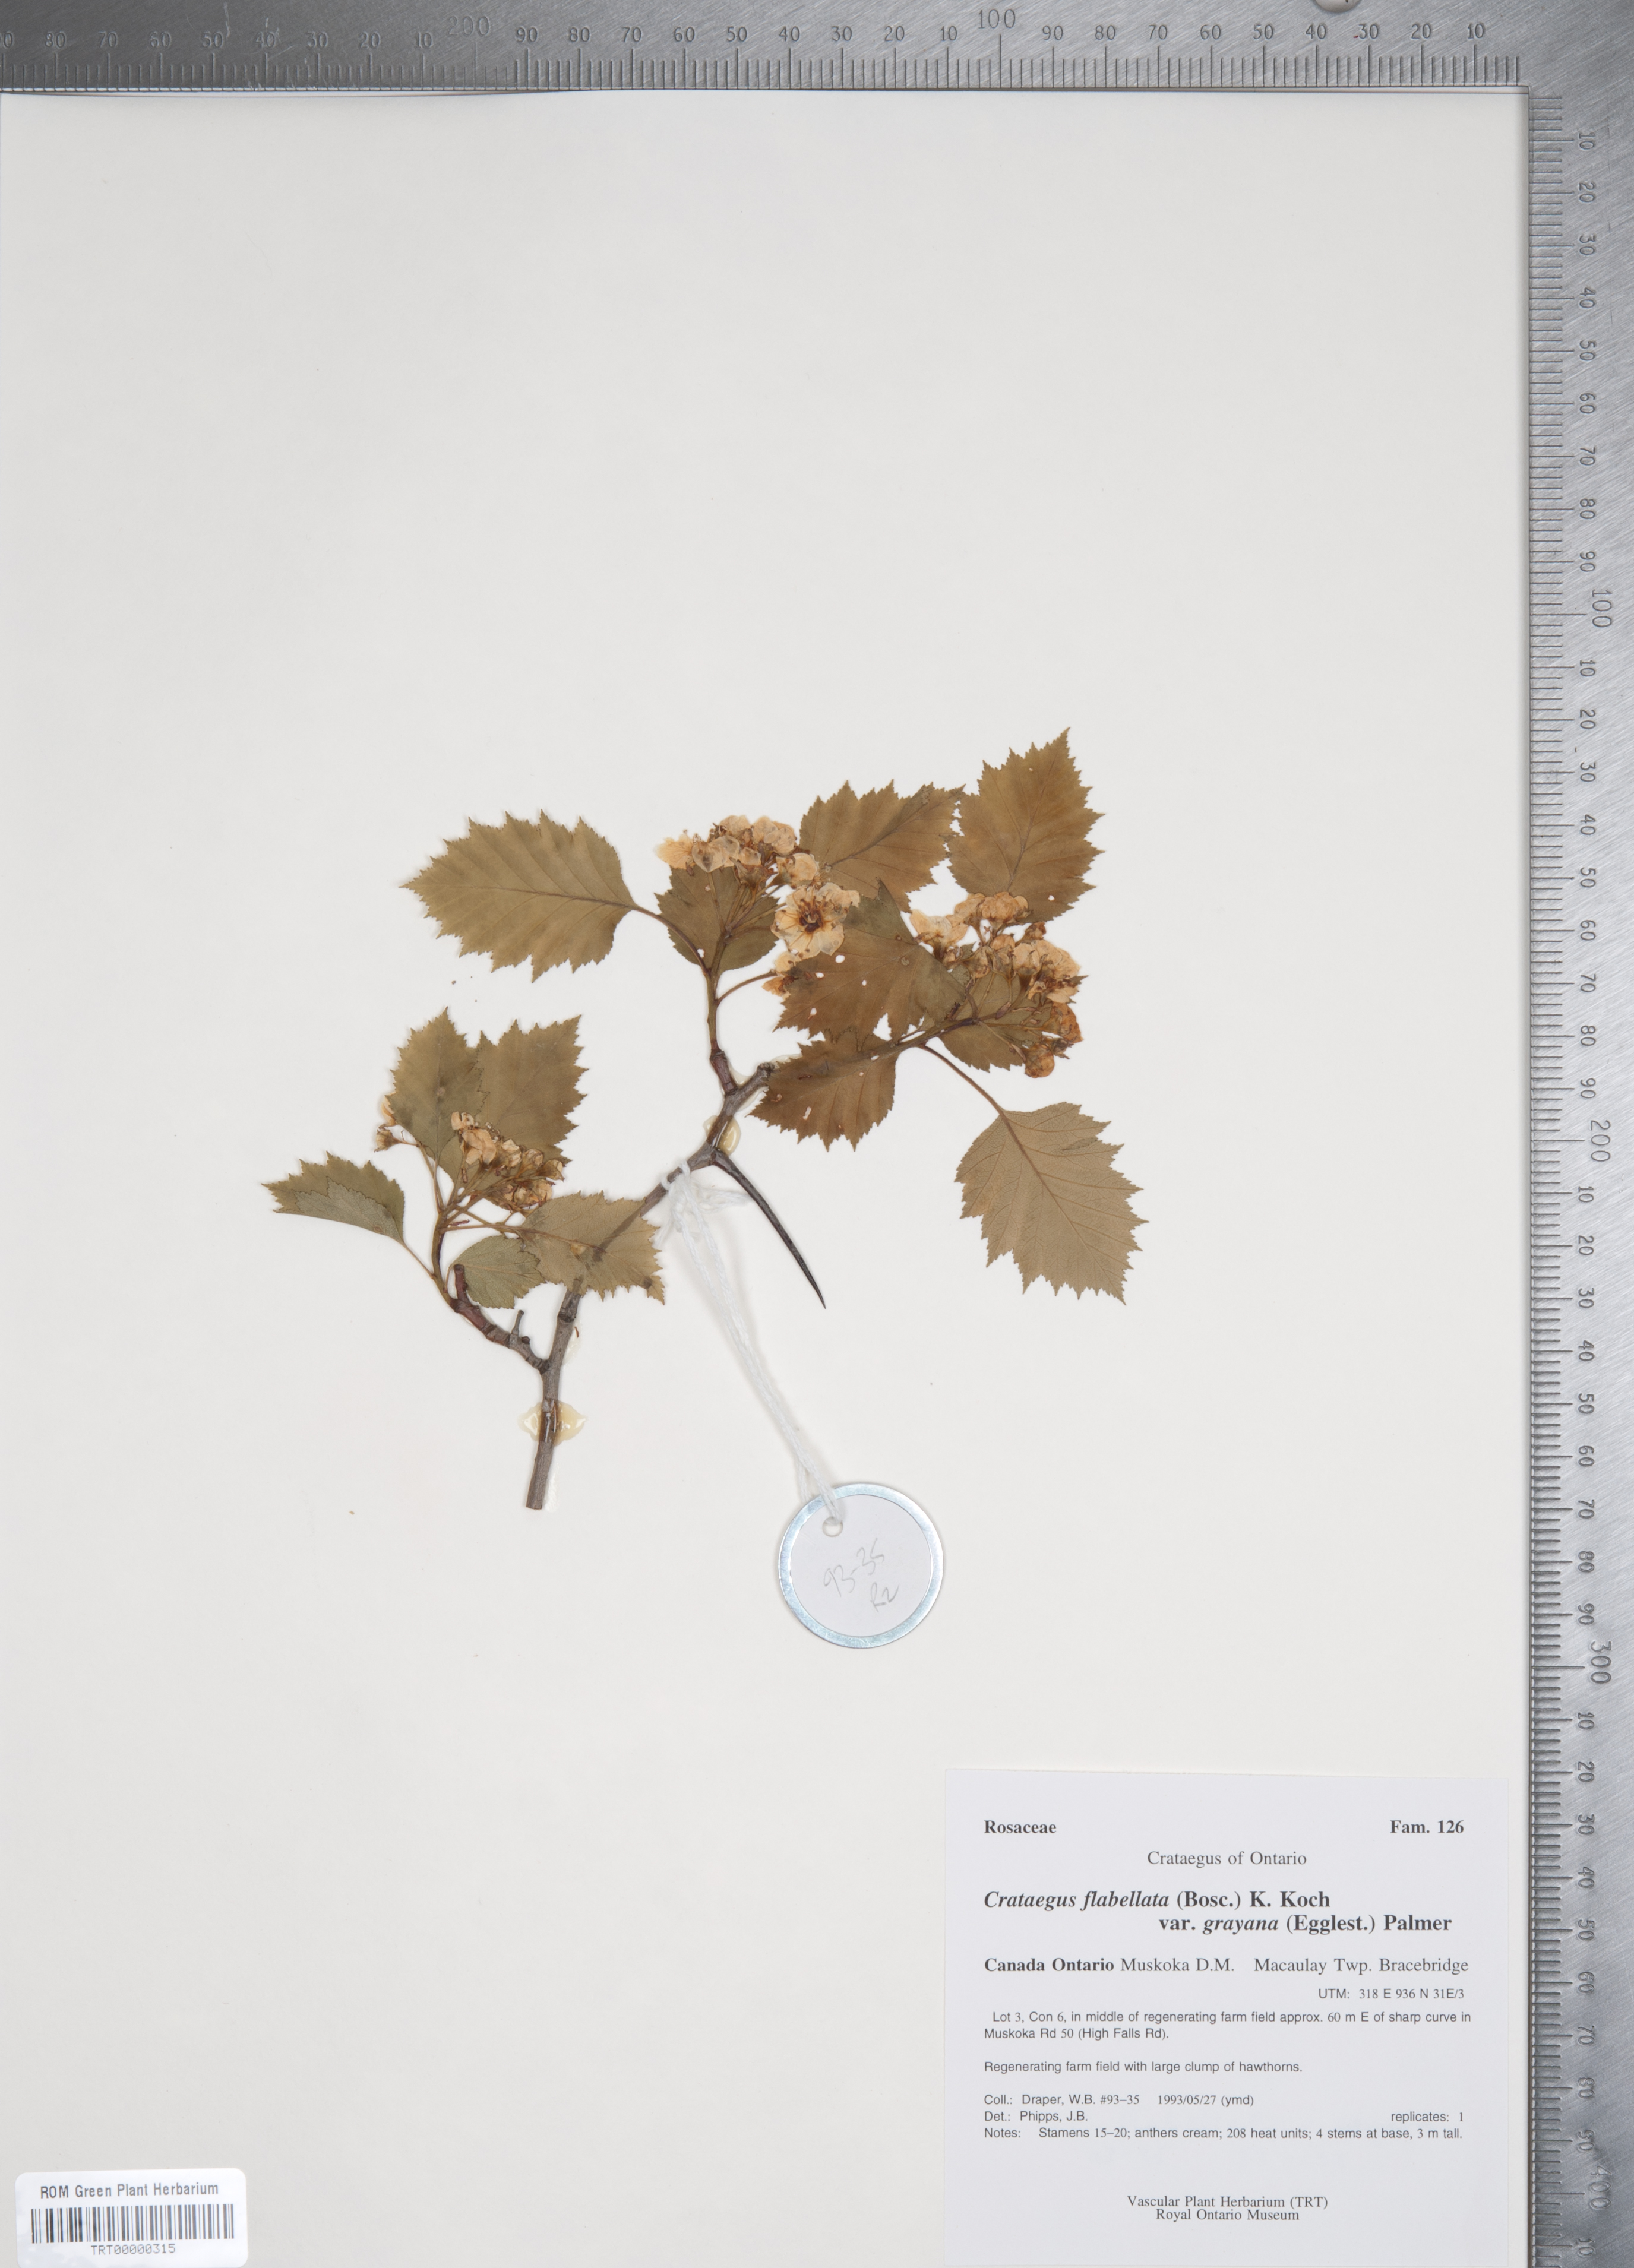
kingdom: Plantae
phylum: Tracheophyta
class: Magnoliopsida
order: Rosales
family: Rosaceae
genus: Crataegus
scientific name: Crataegus flabellata
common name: Bosc's hawthorn
